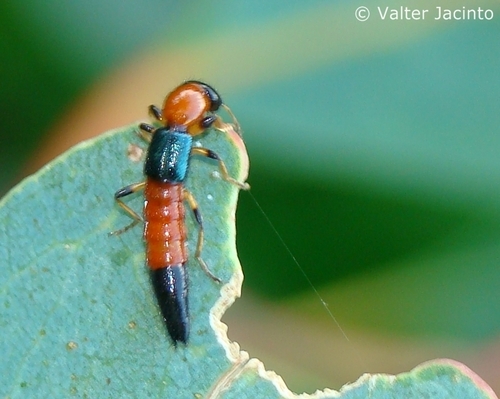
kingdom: Animalia
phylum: Arthropoda
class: Insecta
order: Coleoptera
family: Staphylinidae
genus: Paederus
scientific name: Paederus
